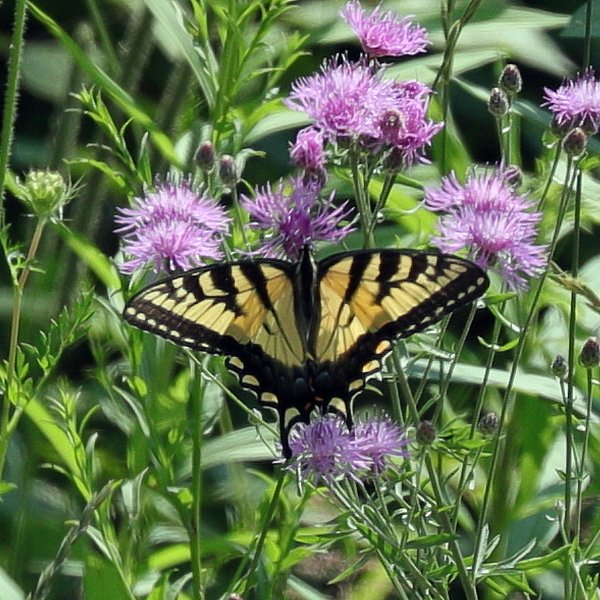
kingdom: Animalia
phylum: Arthropoda
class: Insecta
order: Lepidoptera
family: Papilionidae
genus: Pterourus
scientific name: Pterourus glaucus
